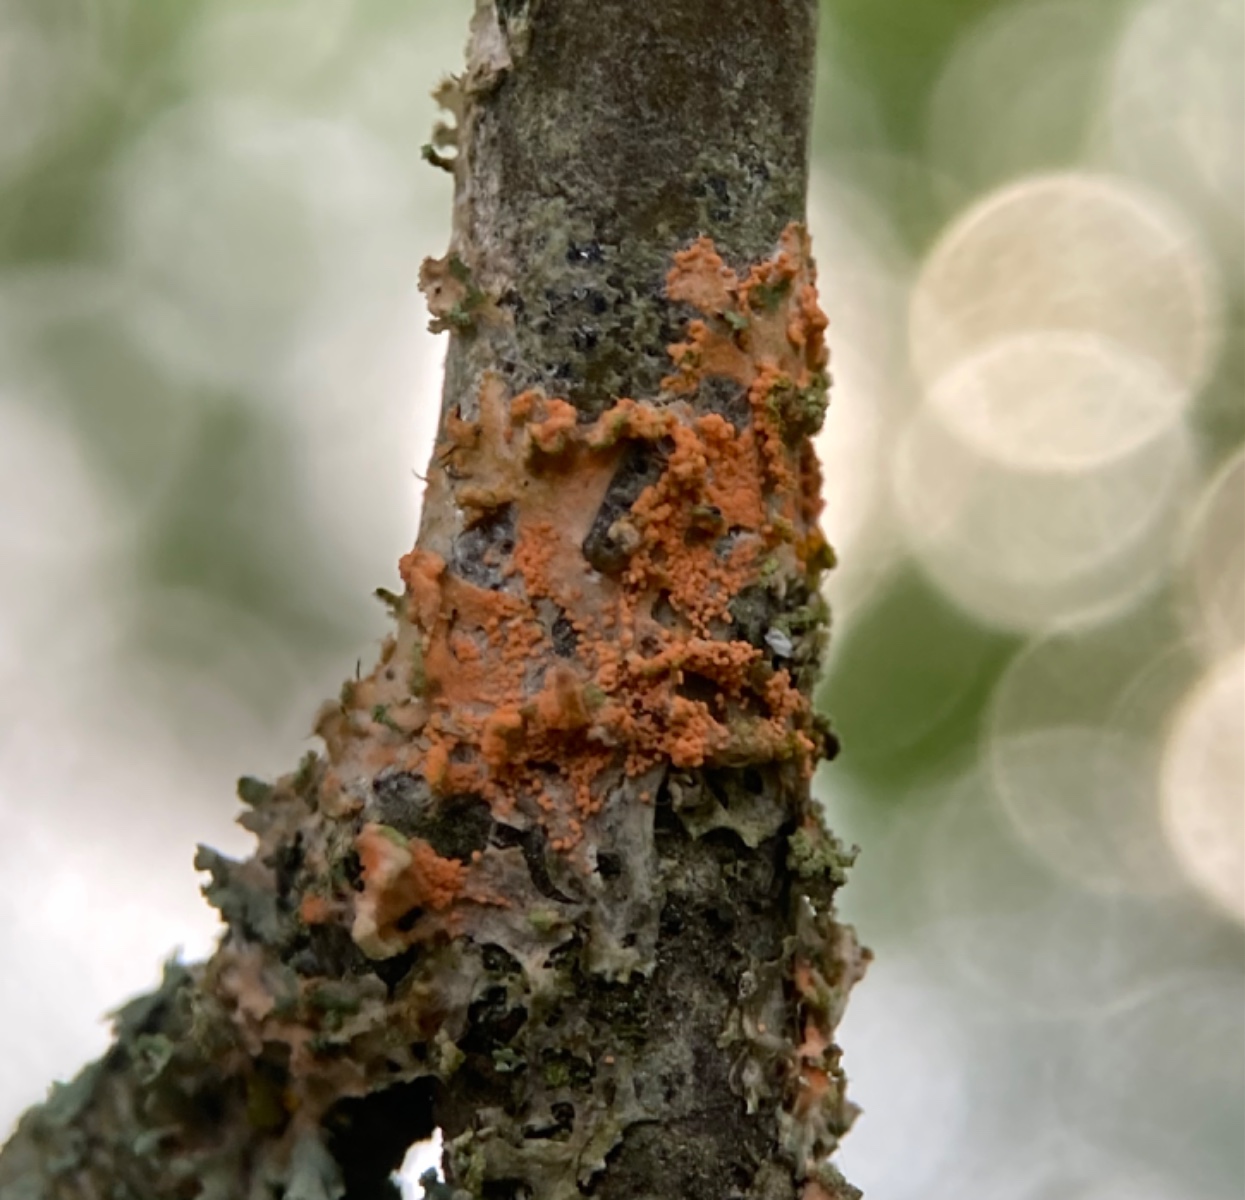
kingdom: Fungi
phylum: Basidiomycota
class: Agaricomycetes
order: Corticiales
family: Corticiaceae
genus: Erythricium
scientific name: Erythricium aurantiacum
